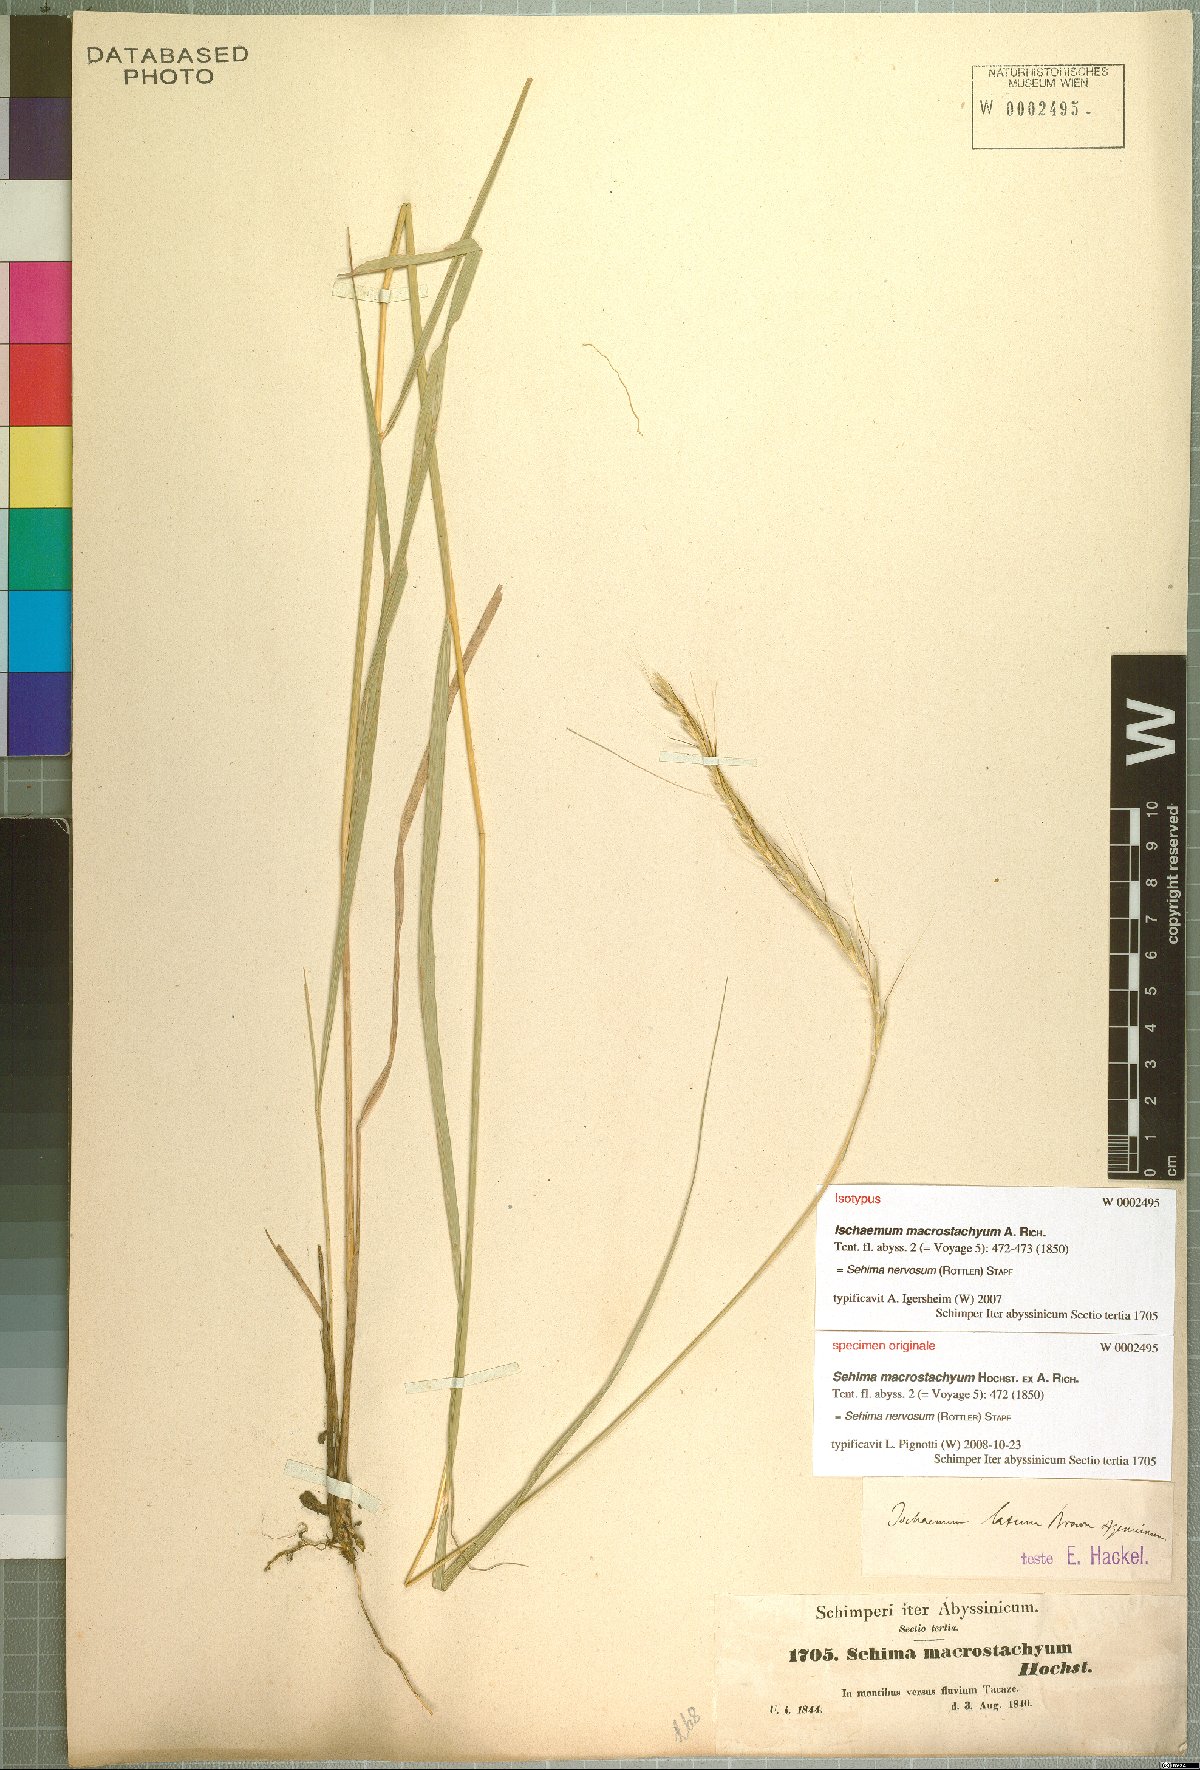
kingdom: Plantae
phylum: Tracheophyta
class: Liliopsida
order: Poales
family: Poaceae
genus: Sehima
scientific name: Sehima nervosa
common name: Rat-tail grass
